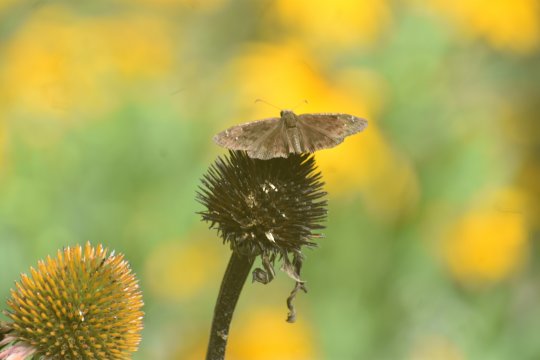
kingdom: Animalia
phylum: Arthropoda
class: Insecta
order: Lepidoptera
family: Hesperiidae
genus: Gesta
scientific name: Gesta
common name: Horace's Duskywing
